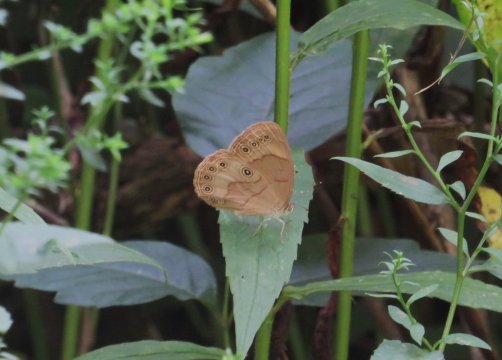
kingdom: Animalia
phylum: Arthropoda
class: Insecta
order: Lepidoptera
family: Nymphalidae
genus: Lethe
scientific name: Lethe eurydice
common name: Appalachian Eyed Brown
